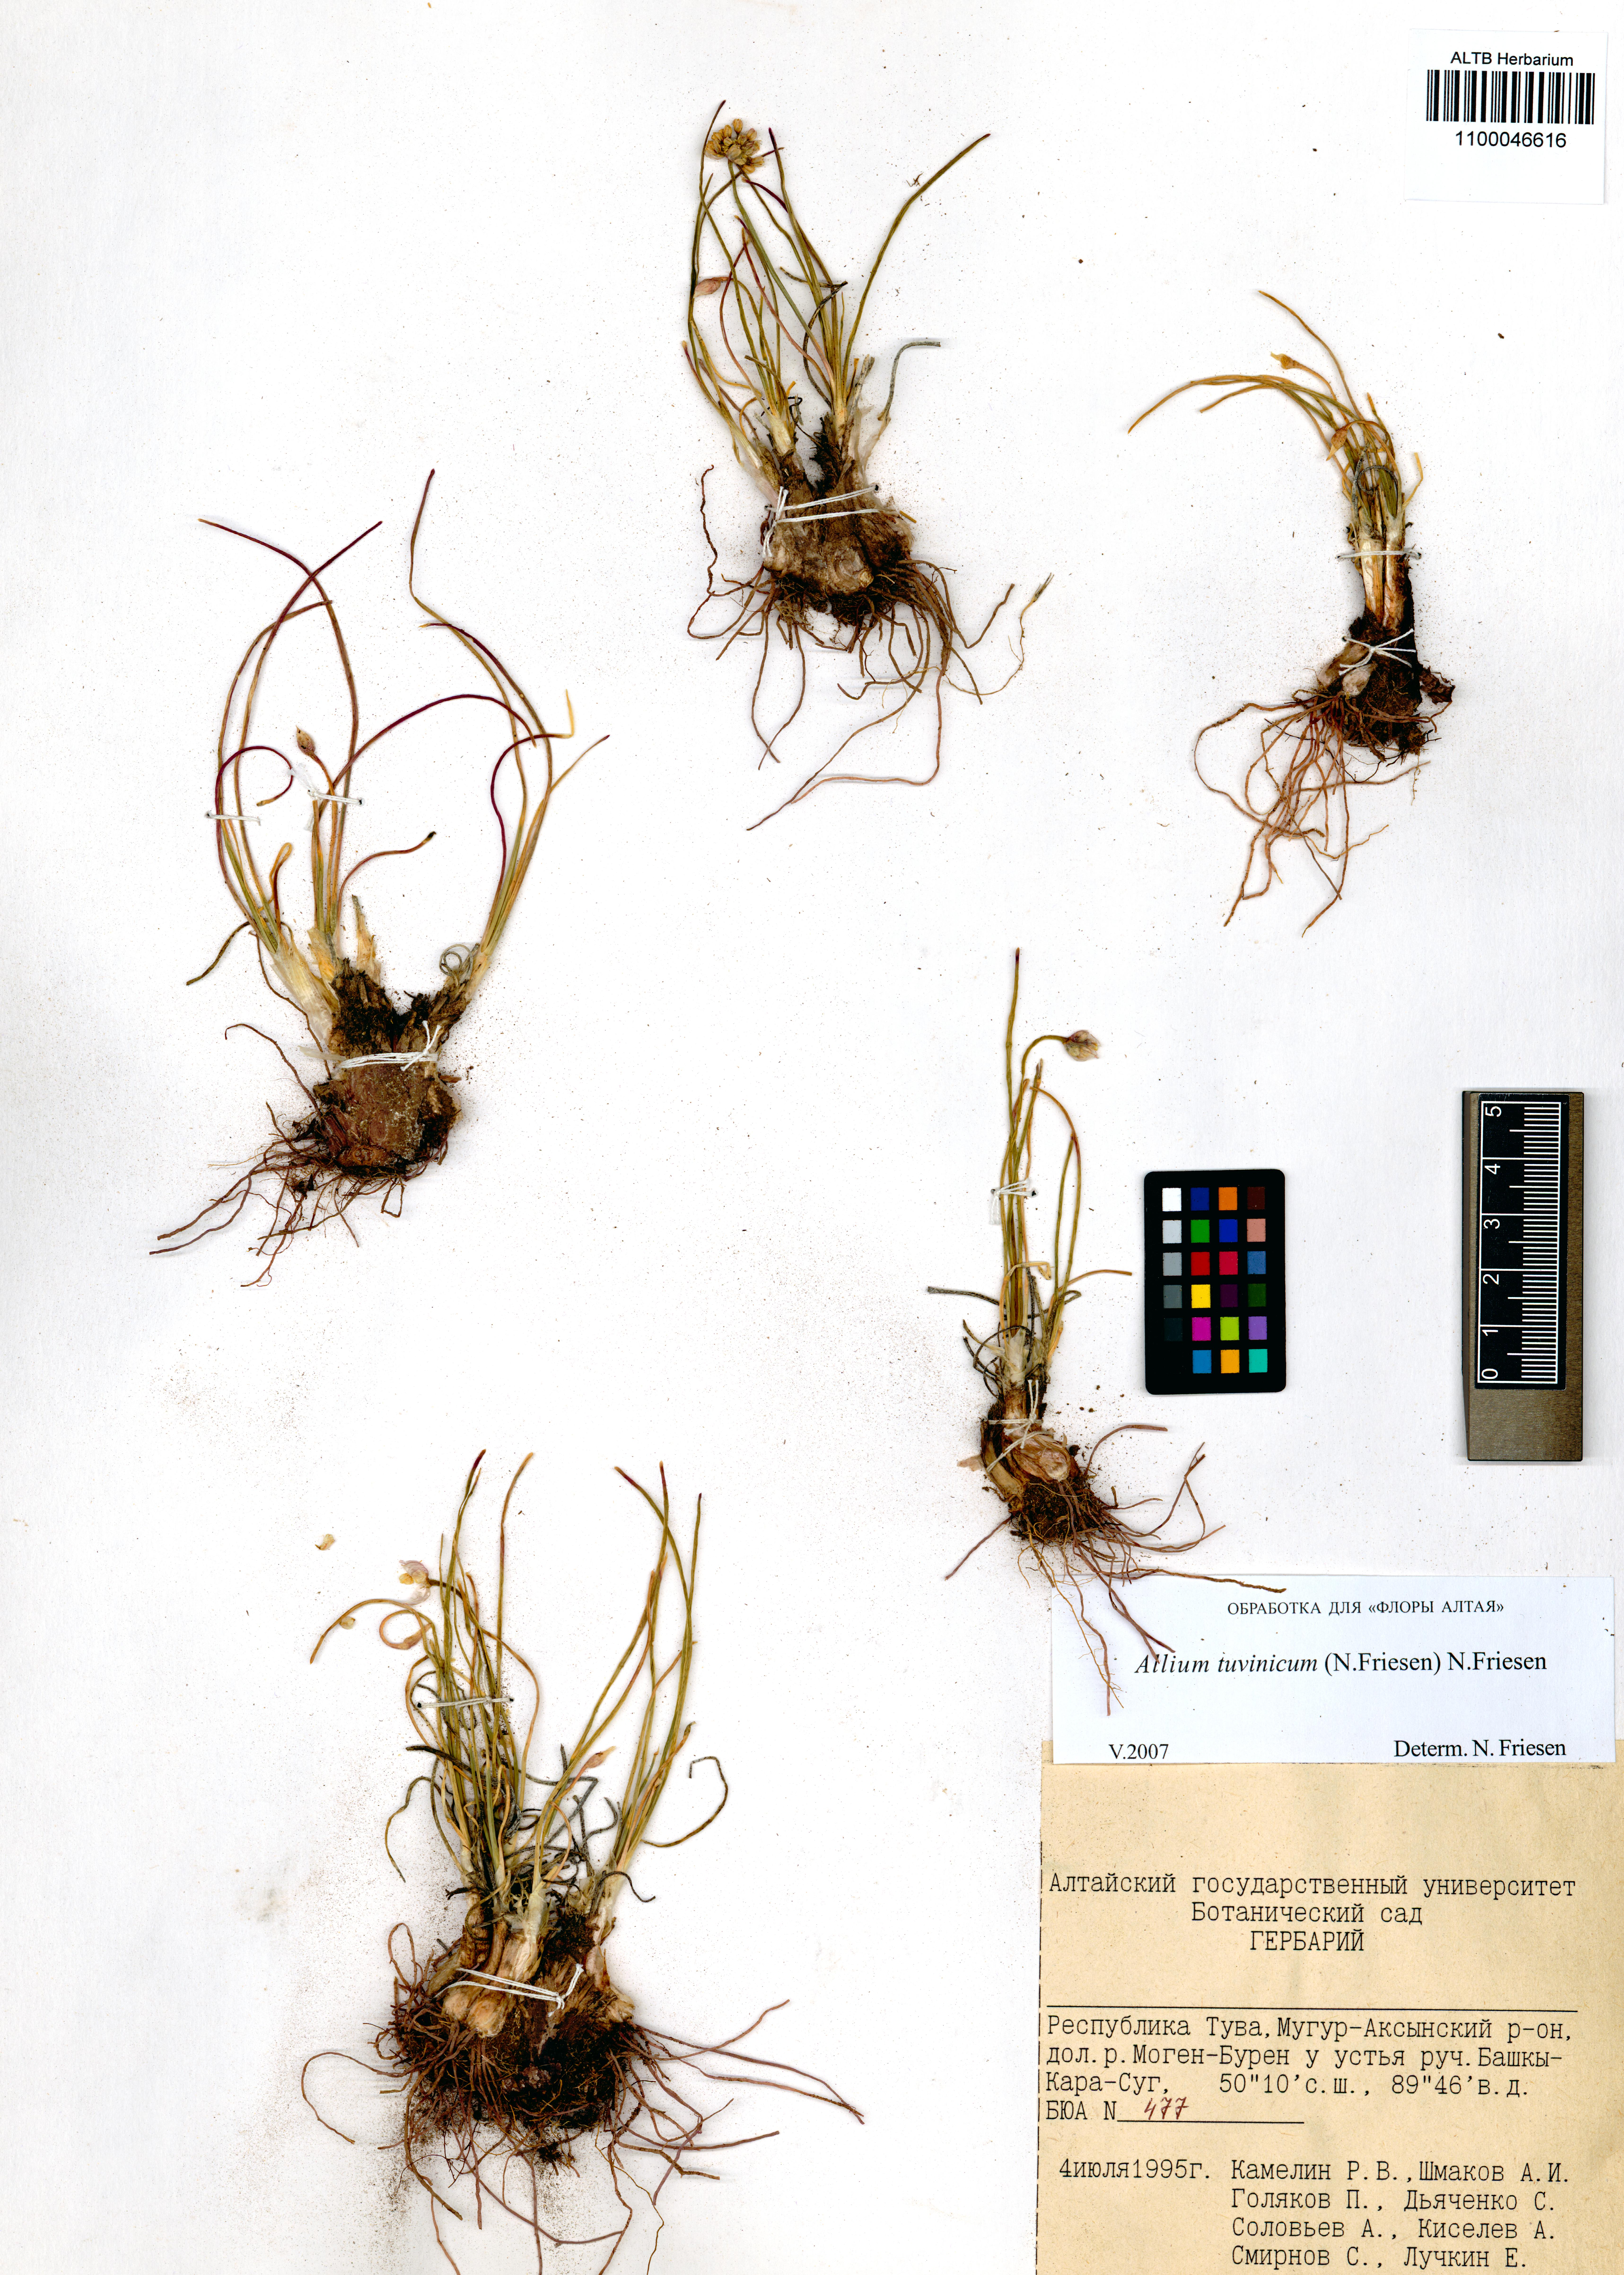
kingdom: Plantae
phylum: Tracheophyta
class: Liliopsida
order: Asparagales
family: Amaryllidaceae
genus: Allium
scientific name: Allium tuvinicum
